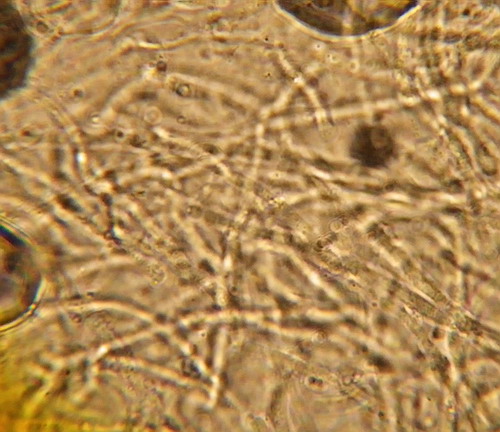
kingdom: Fungi
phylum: Basidiomycota
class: Agaricomycetes
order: Polyporales
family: Gelatoporiaceae
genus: Cinereomyces
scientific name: Cinereomyces lindbladii
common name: almindelig gråporesvamp
